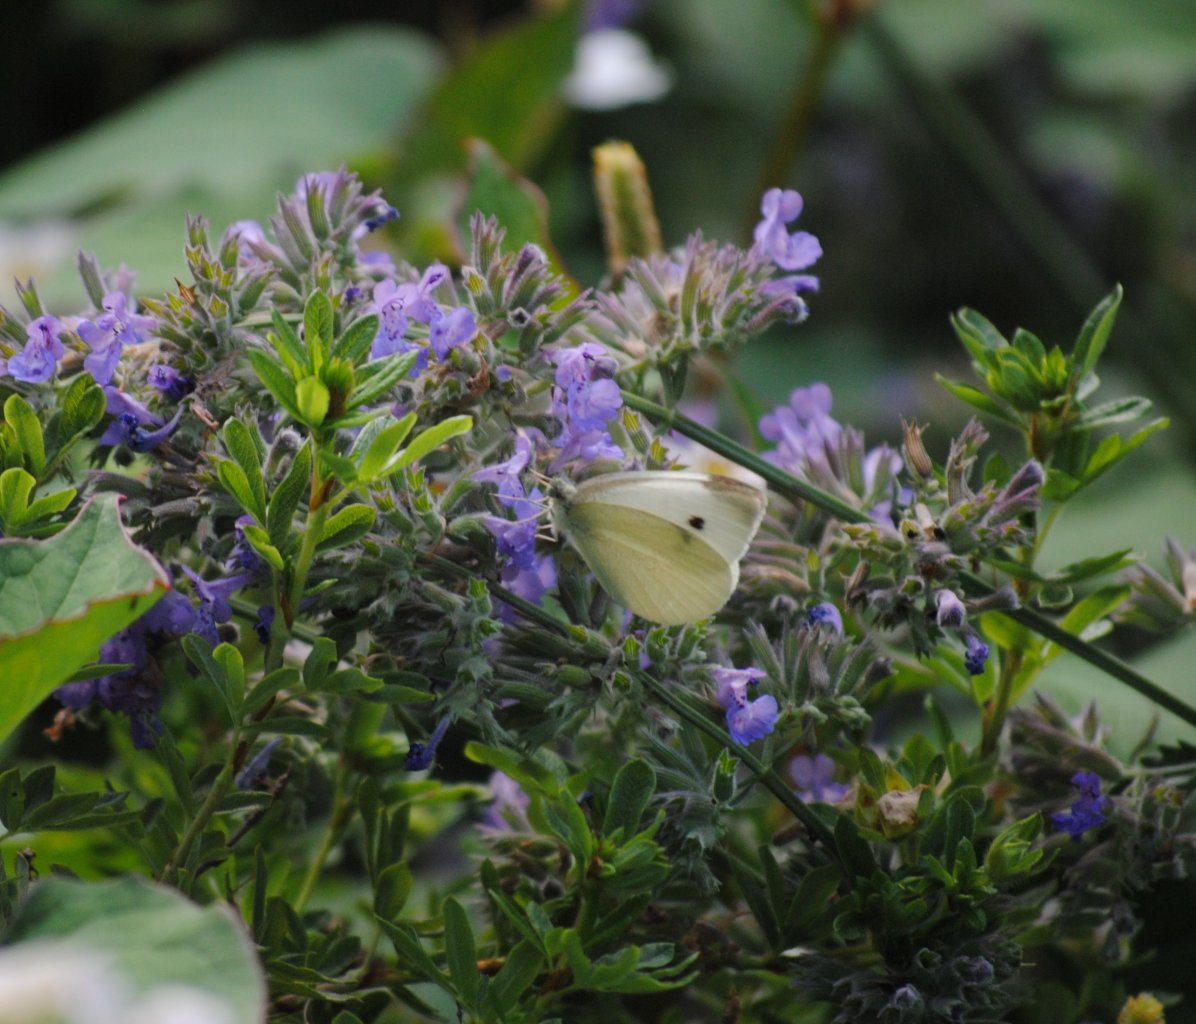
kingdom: Animalia
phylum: Arthropoda
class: Insecta
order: Lepidoptera
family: Pieridae
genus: Pieris
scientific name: Pieris rapae
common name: Cabbage White
